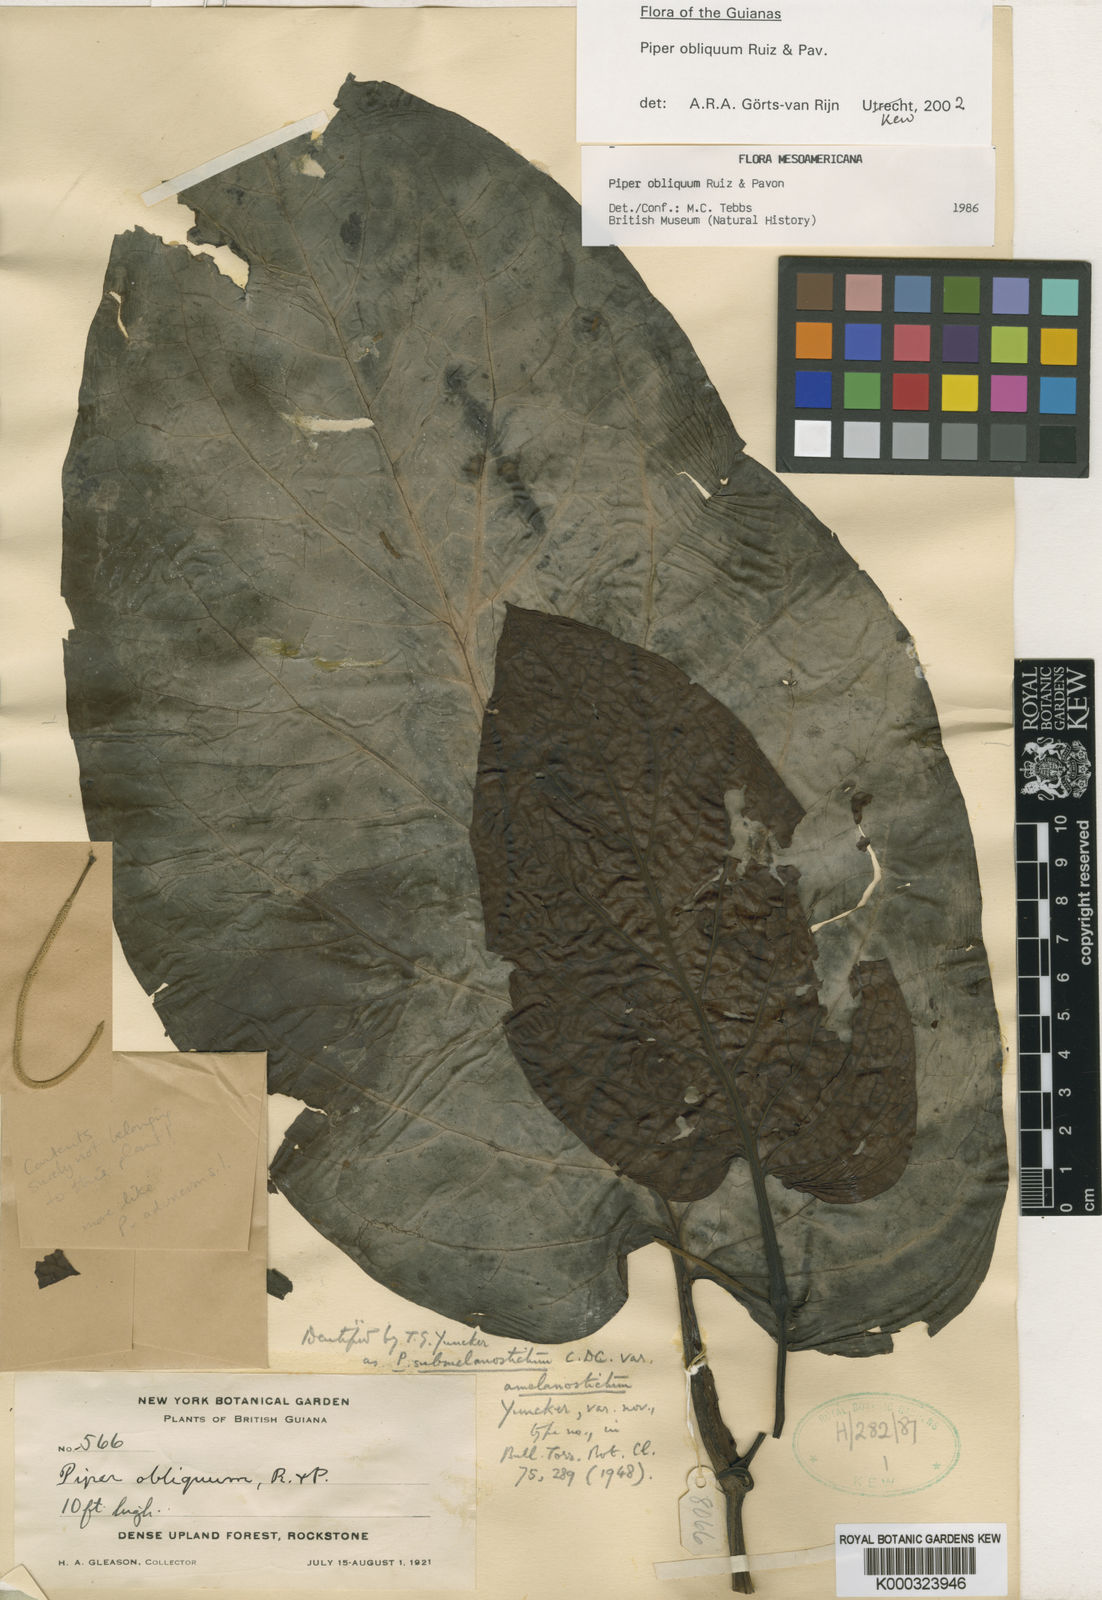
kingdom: Plantae
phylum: Tracheophyta
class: Magnoliopsida
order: Piperales
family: Piperaceae
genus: Piper
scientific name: Piper obliquum
